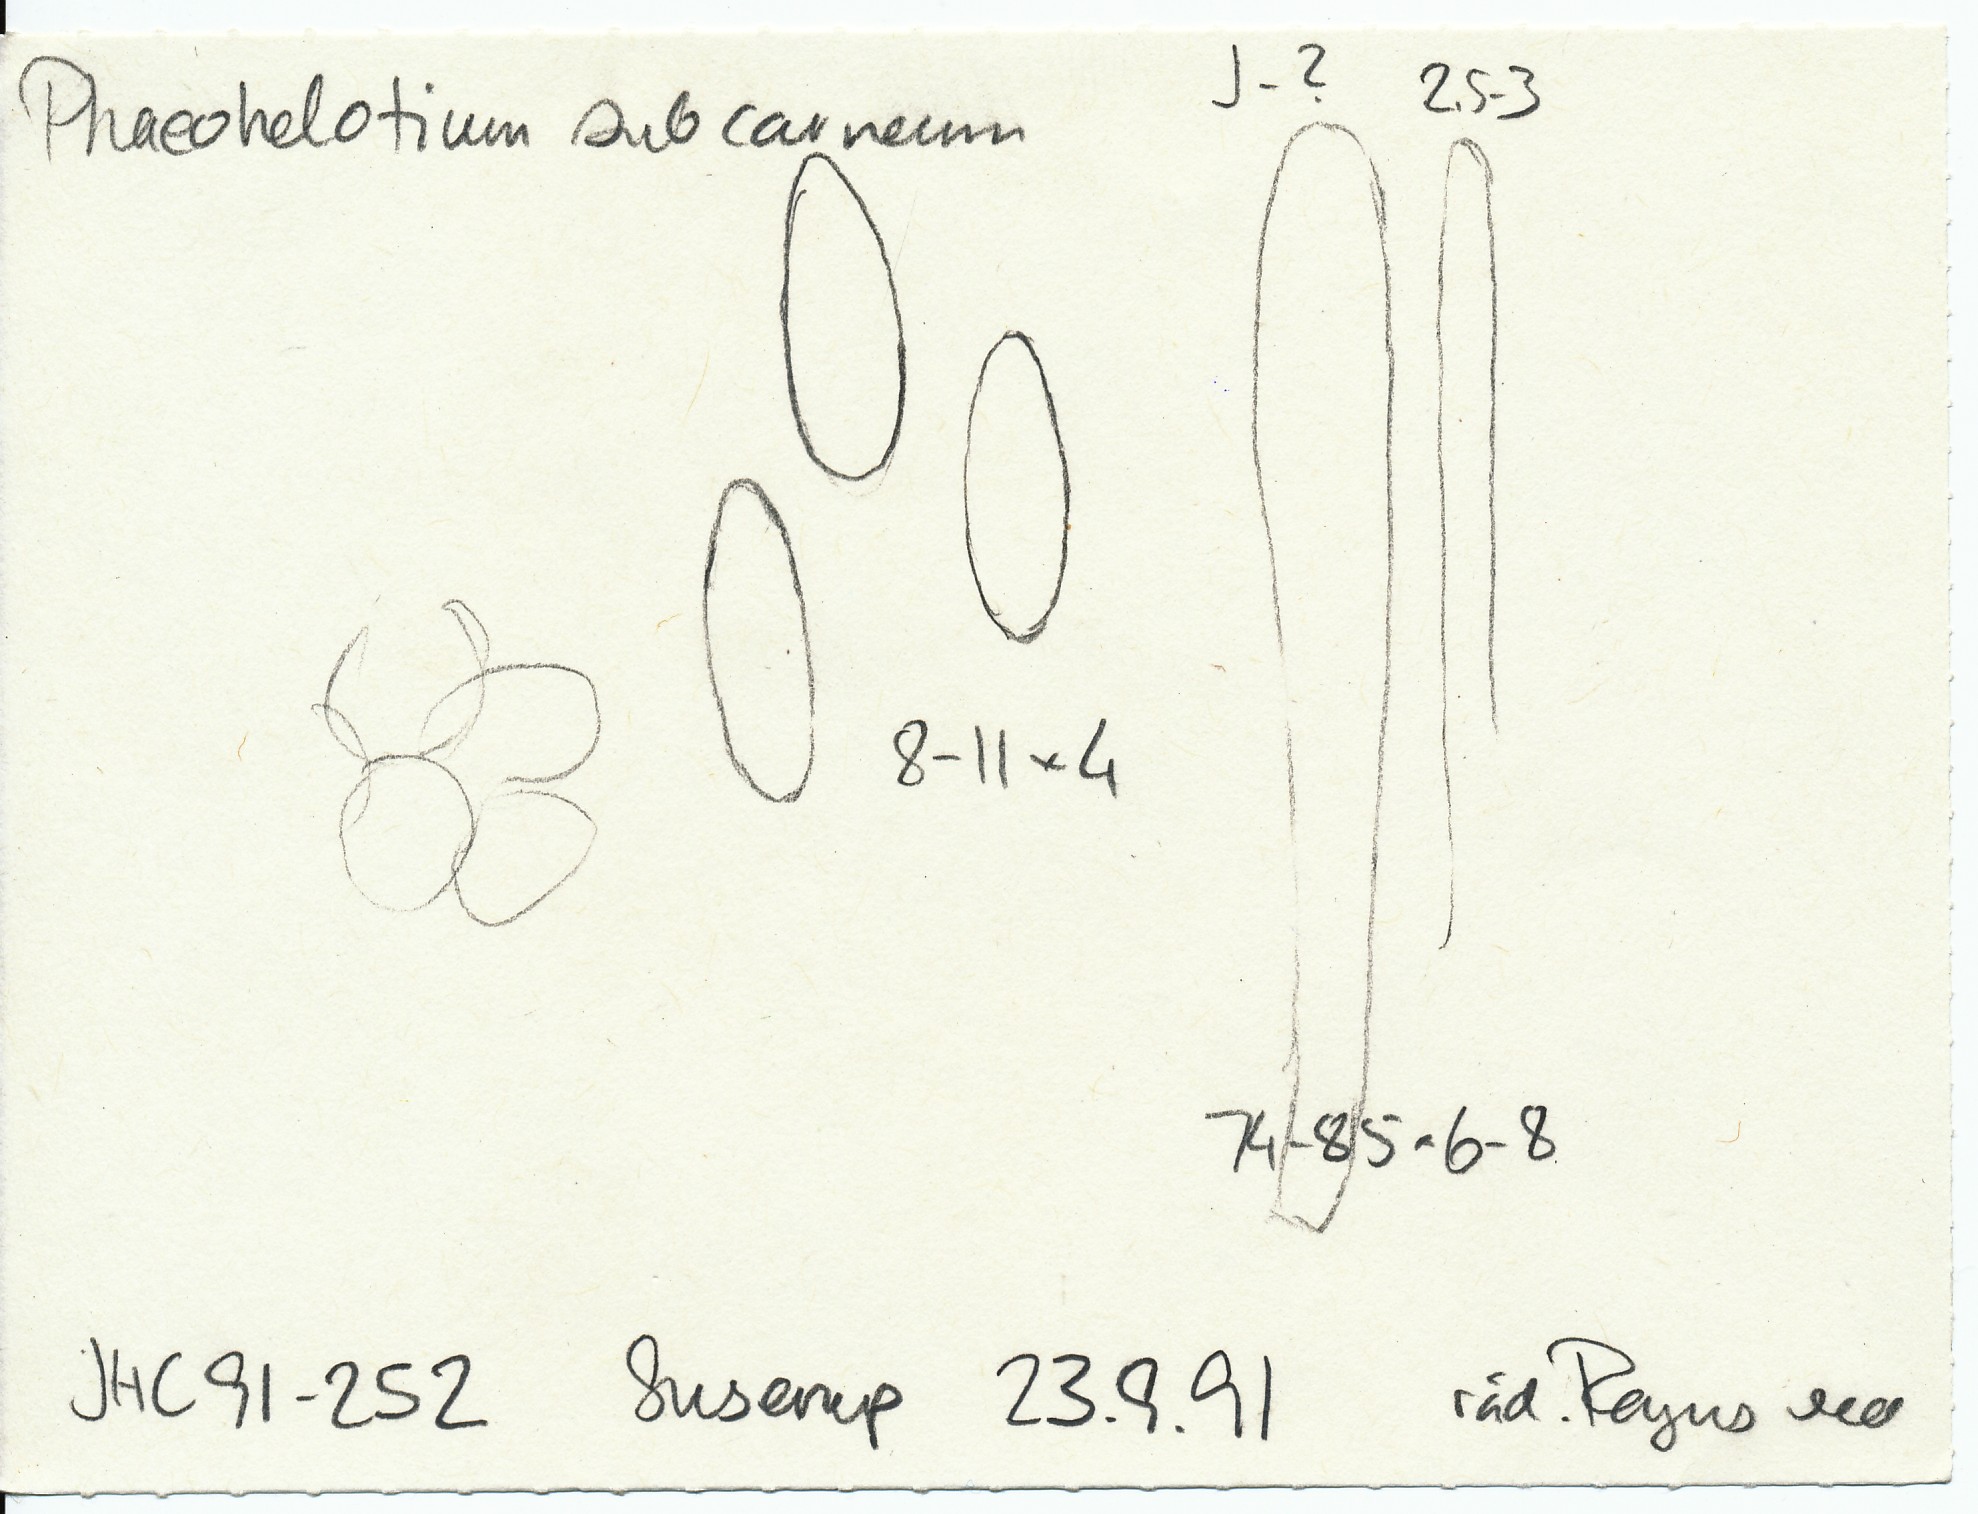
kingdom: Fungi
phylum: Ascomycota
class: Leotiomycetes
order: Helotiales
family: Helotiaceae
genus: Phaeohelotium
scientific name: Phaeohelotium carneum
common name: rødlig stilkskive
